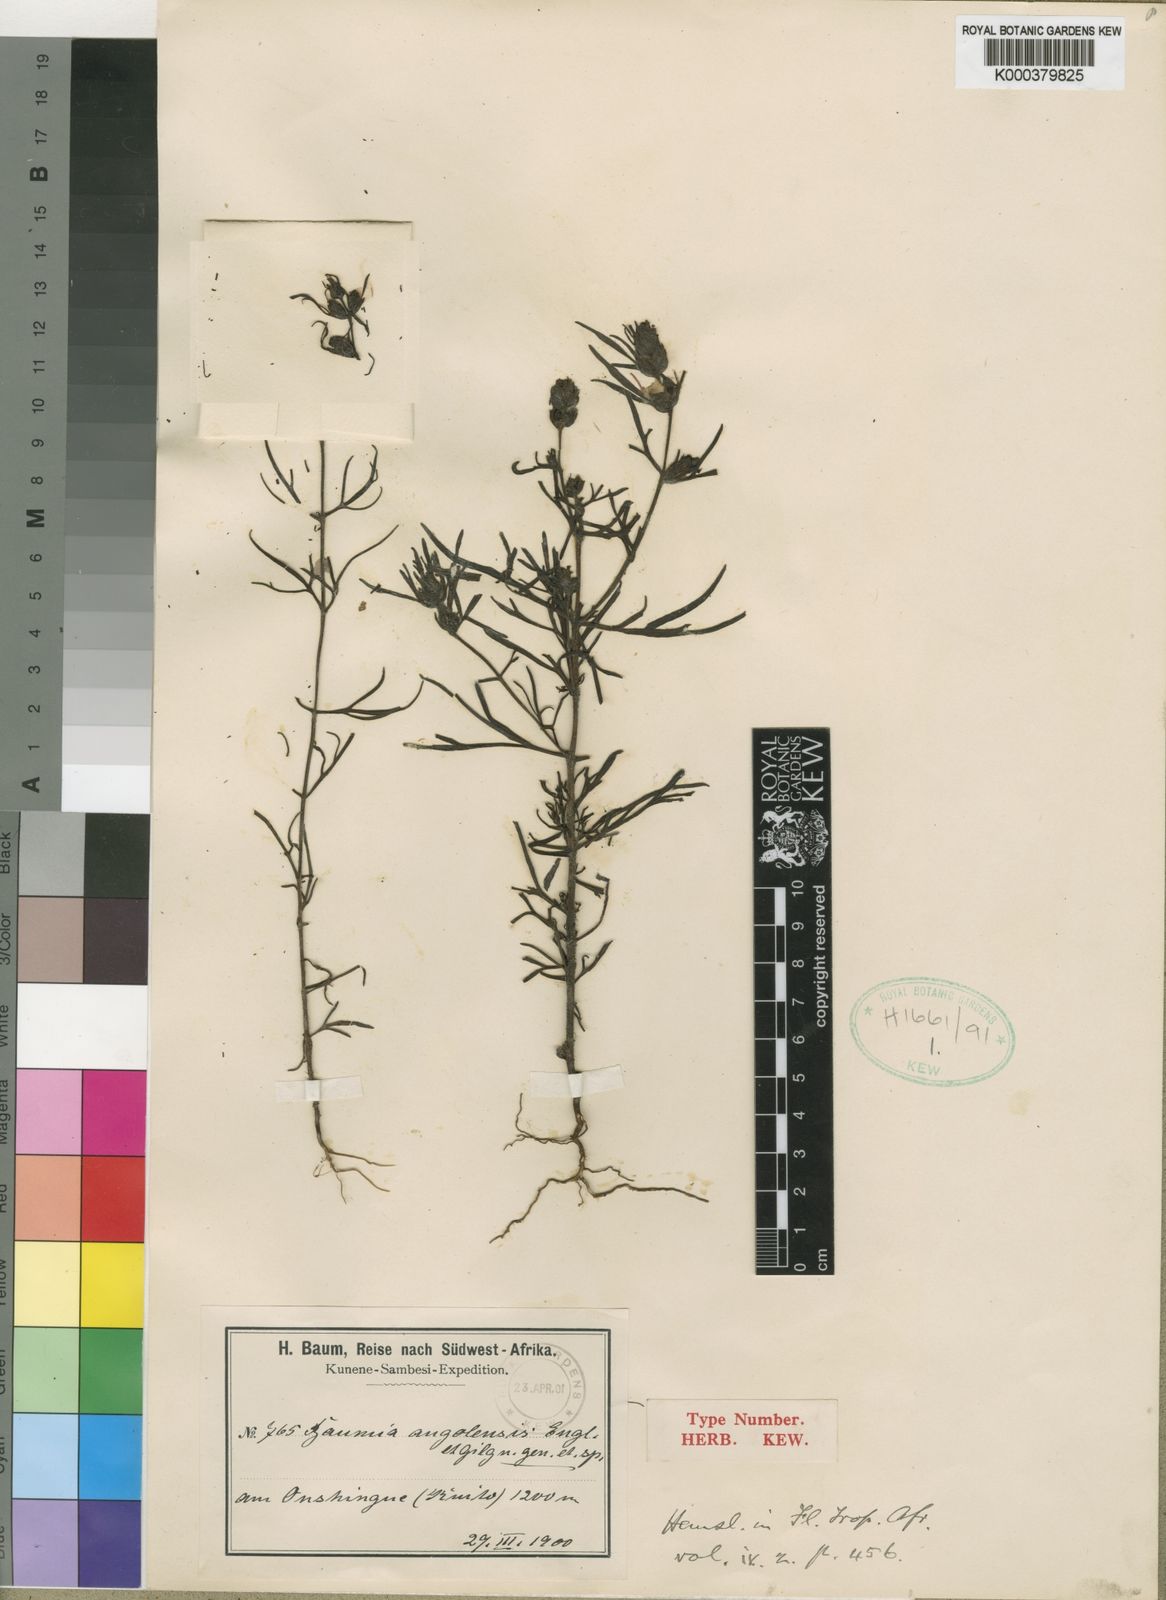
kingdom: Plantae
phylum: Tracheophyta
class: Magnoliopsida
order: Lamiales
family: Orobanchaceae
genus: Baumia
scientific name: Baumia angolensis
